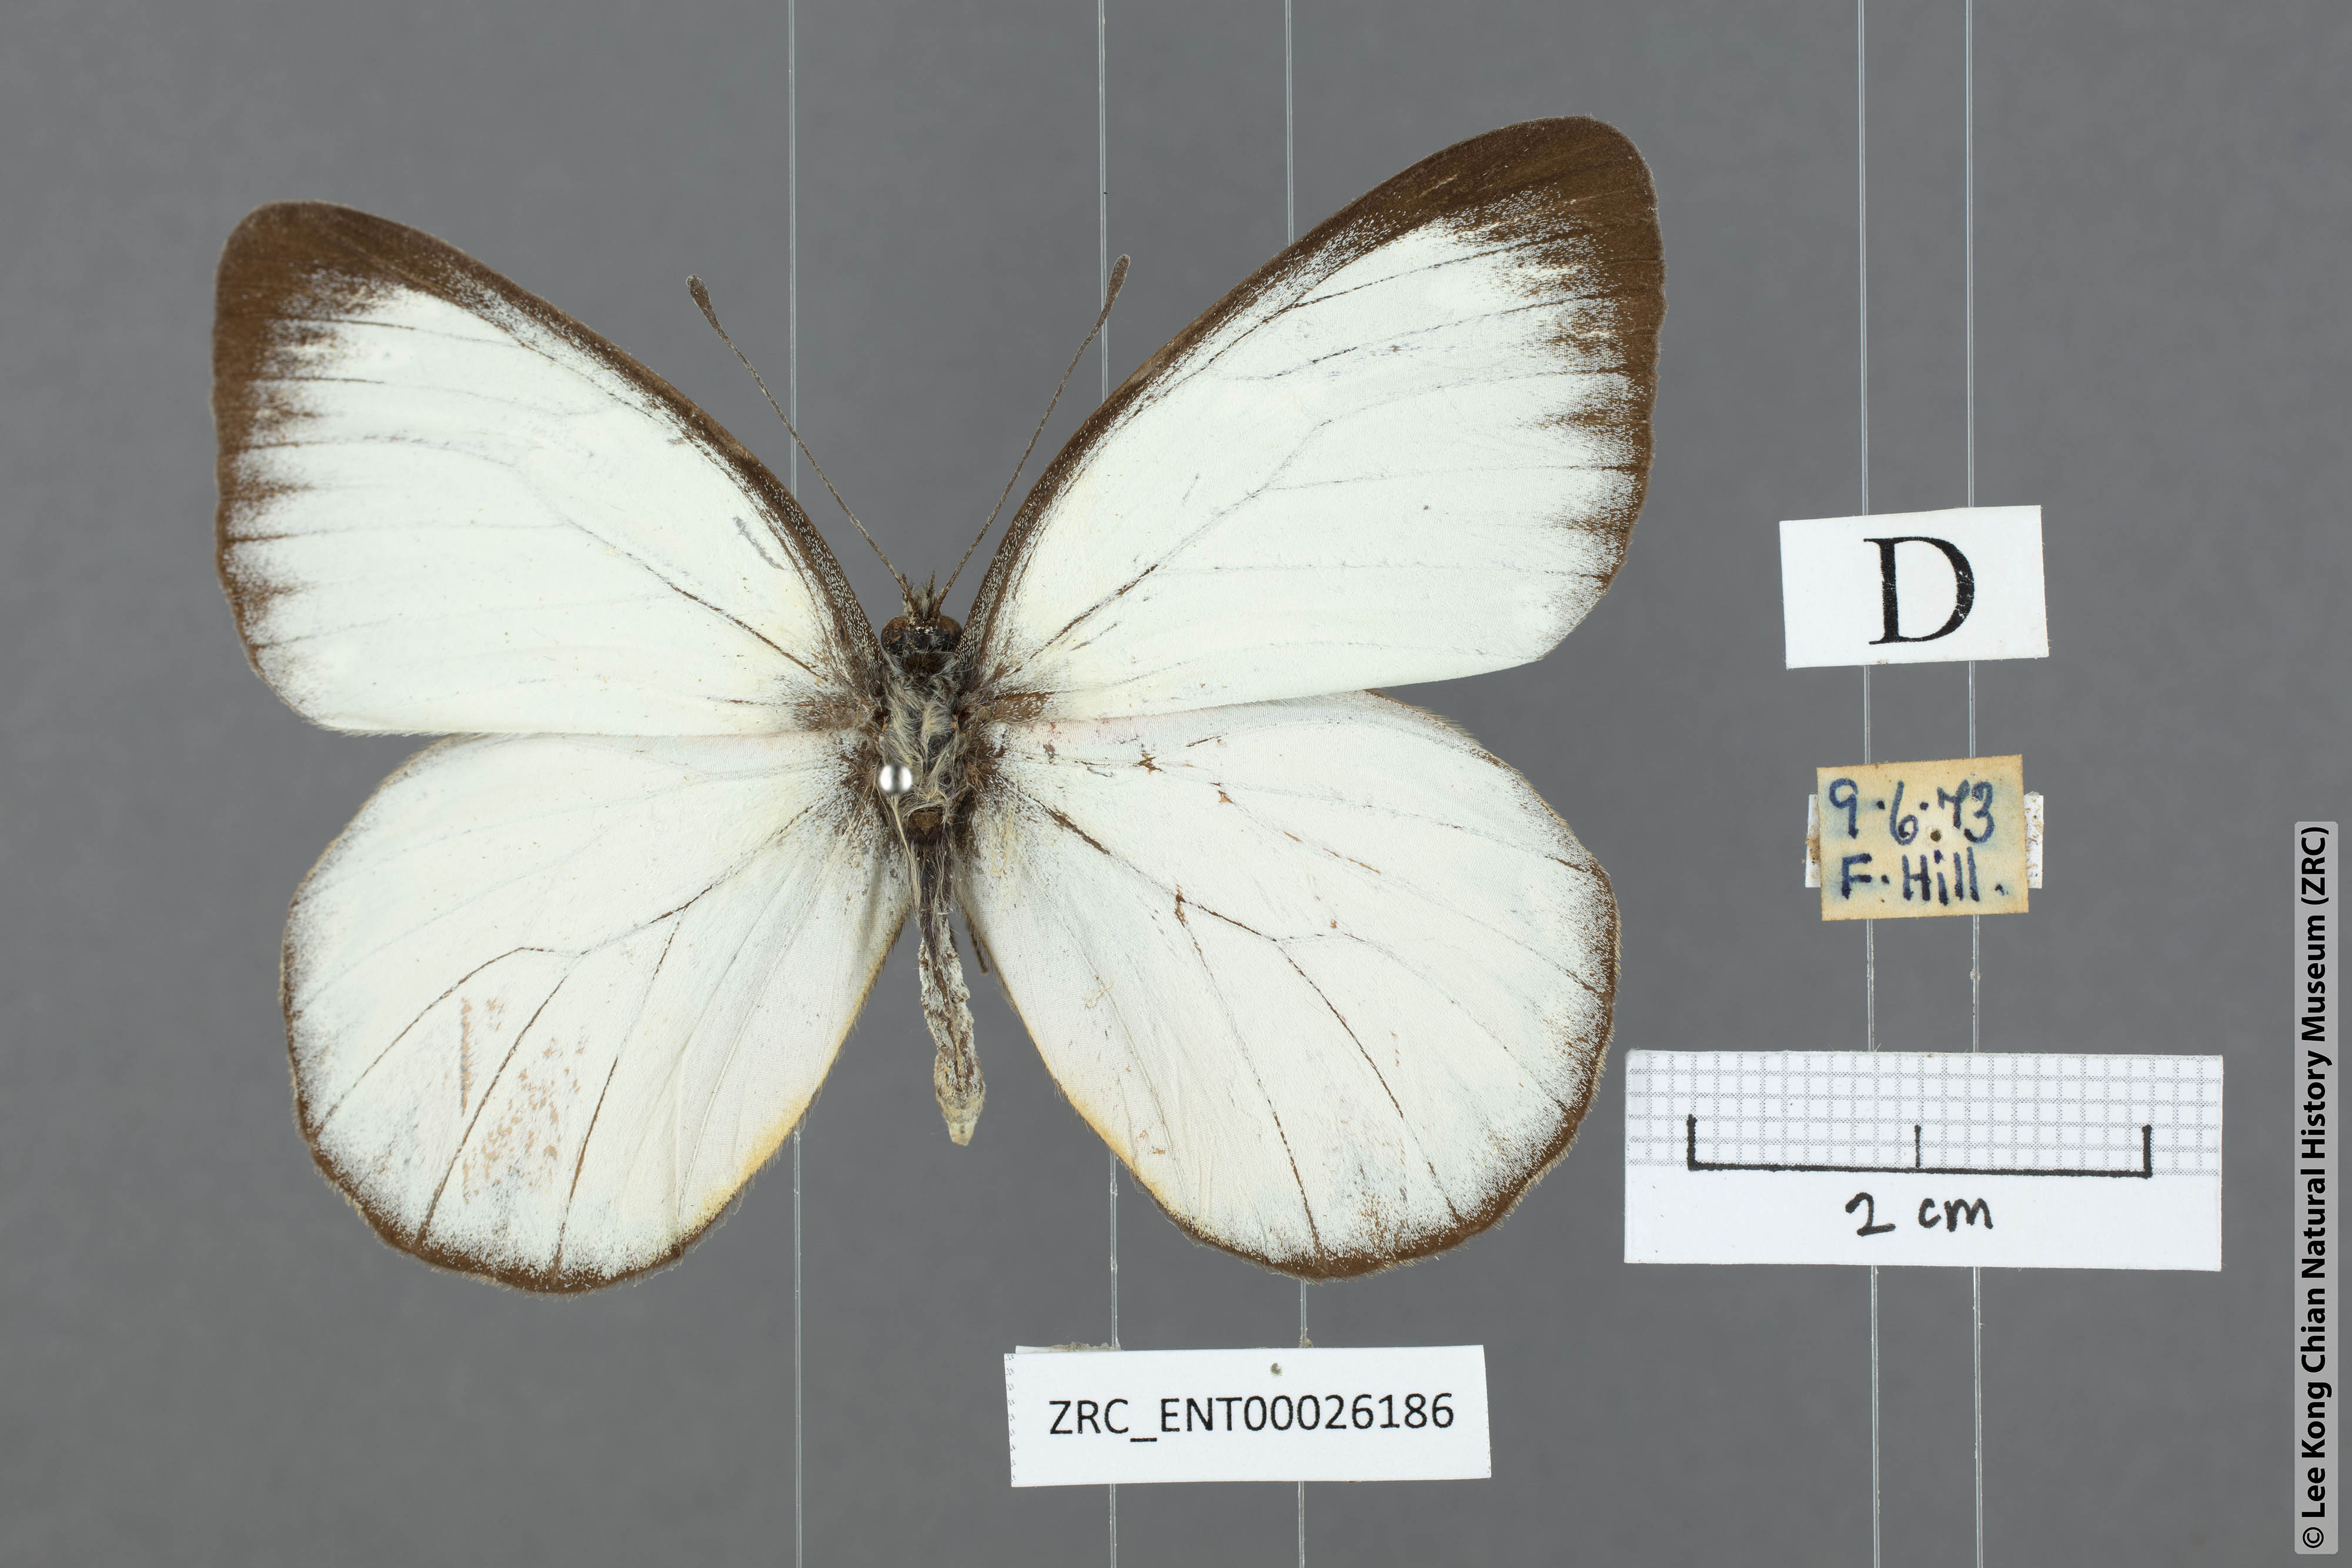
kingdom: Animalia
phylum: Arthropoda
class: Insecta
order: Lepidoptera
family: Pieridae
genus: Delias
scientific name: Delias descombesi
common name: Red-spot jezebel
